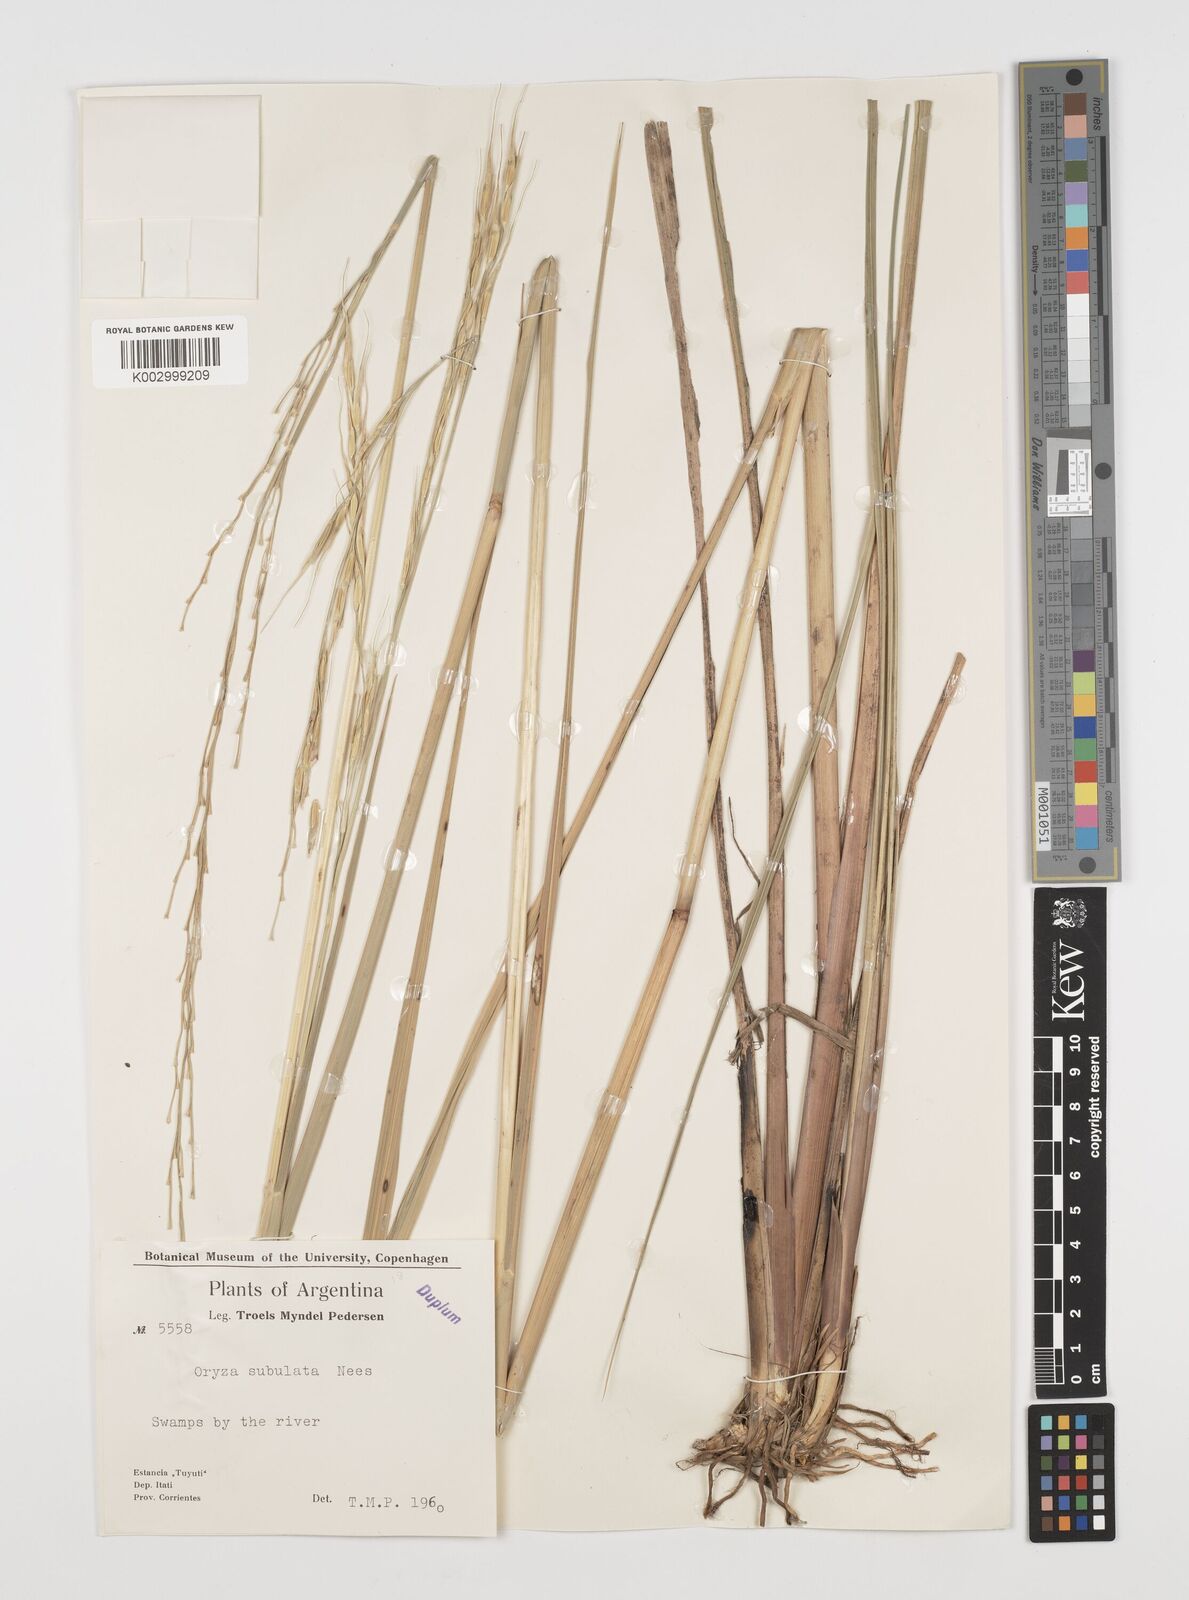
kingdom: Plantae
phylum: Tracheophyta
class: Liliopsida
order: Poales
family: Poaceae
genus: Rhynchoryza
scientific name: Rhynchoryza subulata
